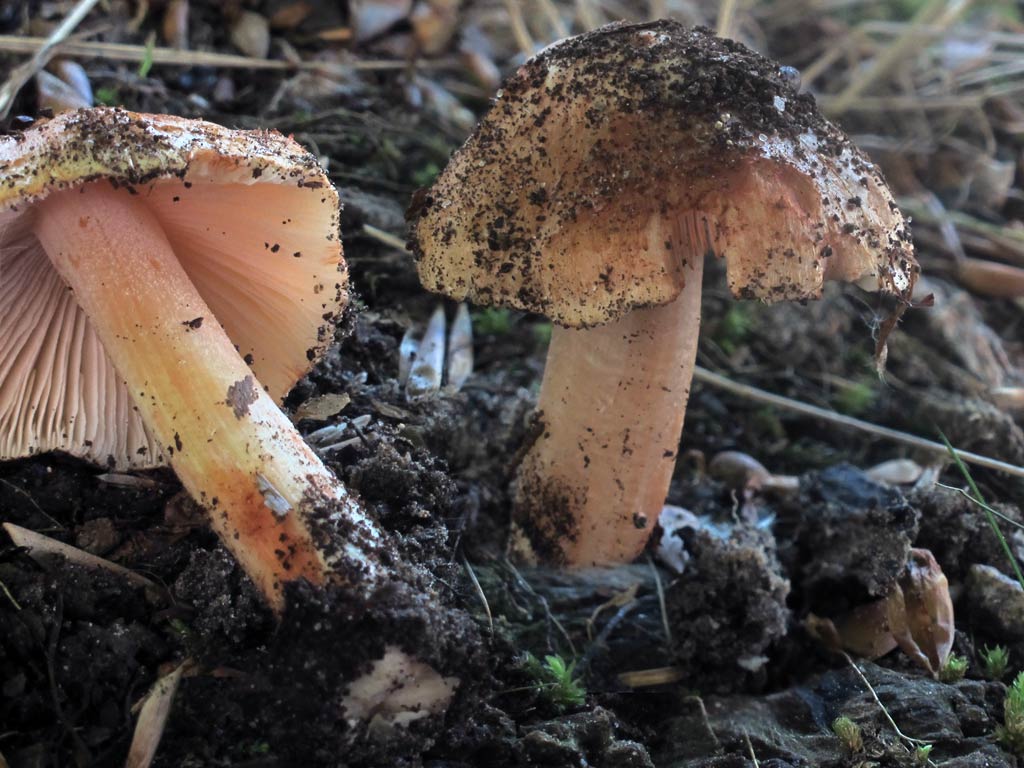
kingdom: Fungi
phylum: Basidiomycota
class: Agaricomycetes
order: Agaricales
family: Inocybaceae
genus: Inosperma
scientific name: Inosperma erubescens
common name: giftig trævlhat
